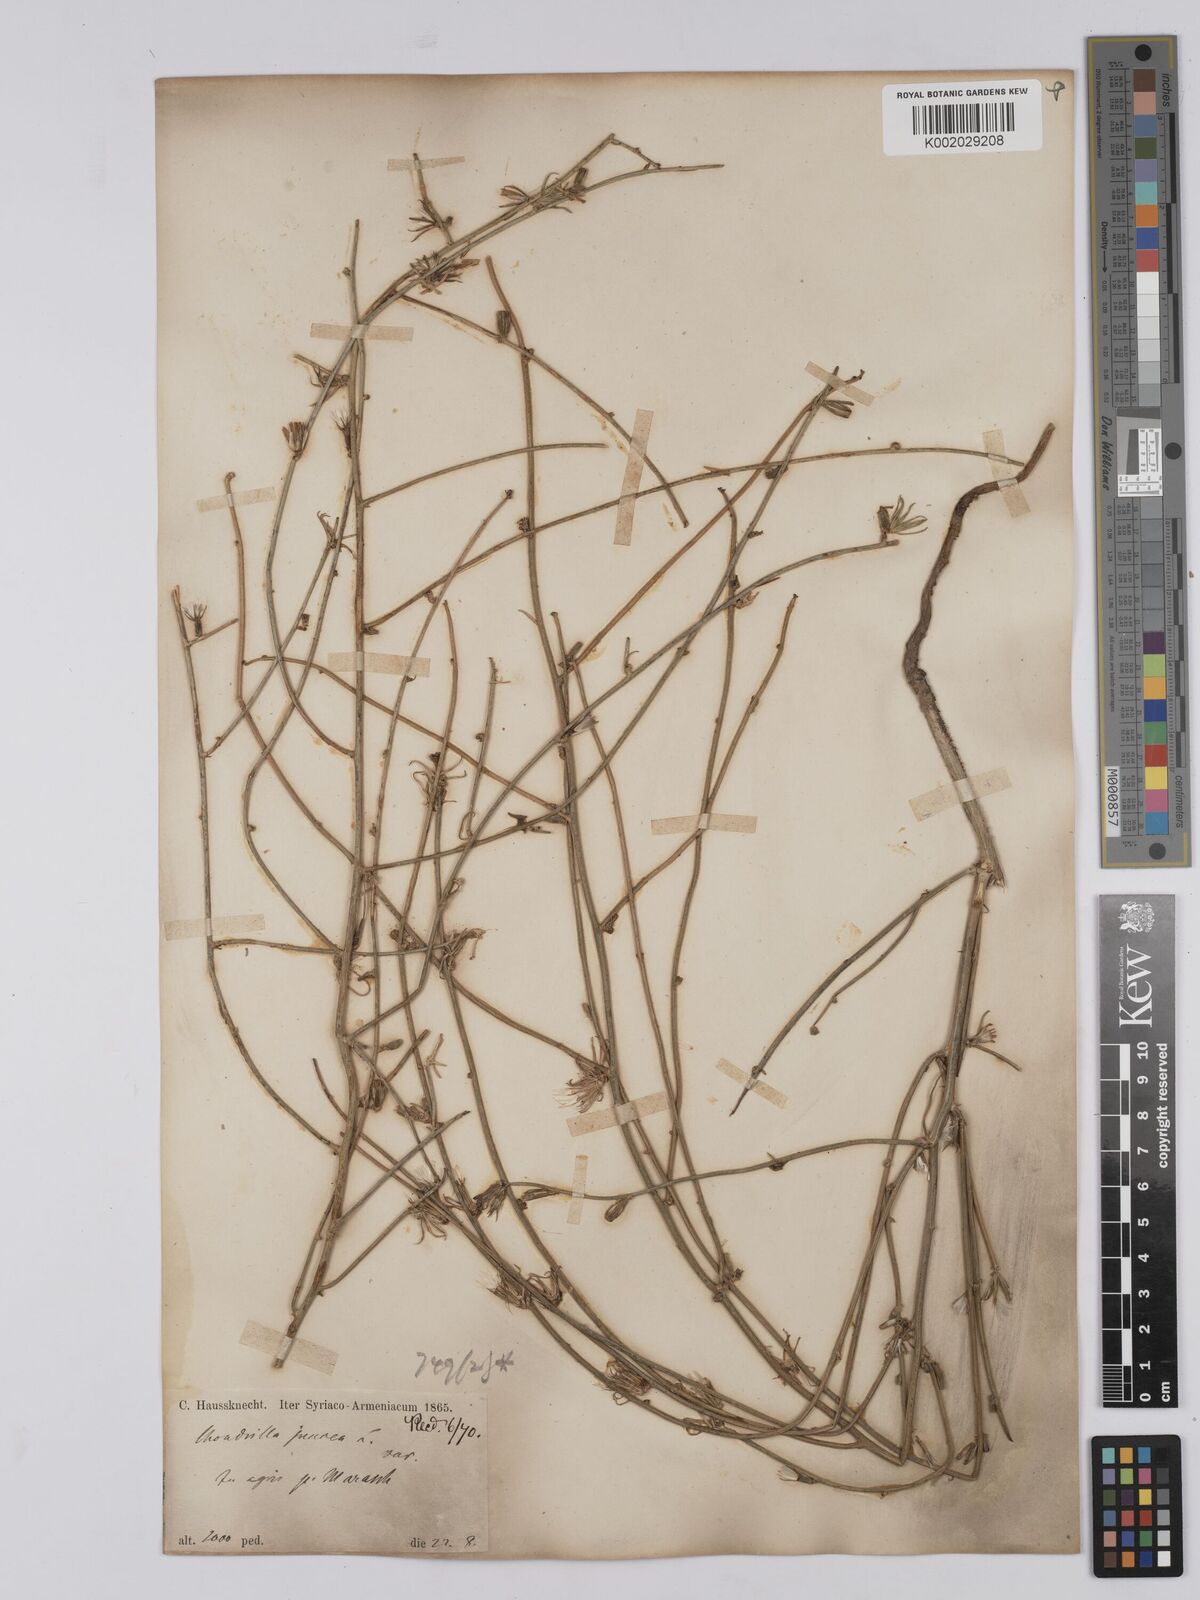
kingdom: Plantae
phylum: Tracheophyta
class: Magnoliopsida
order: Asterales
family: Asteraceae
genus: Chondrilla
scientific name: Chondrilla juncea
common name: Skeleton weed
